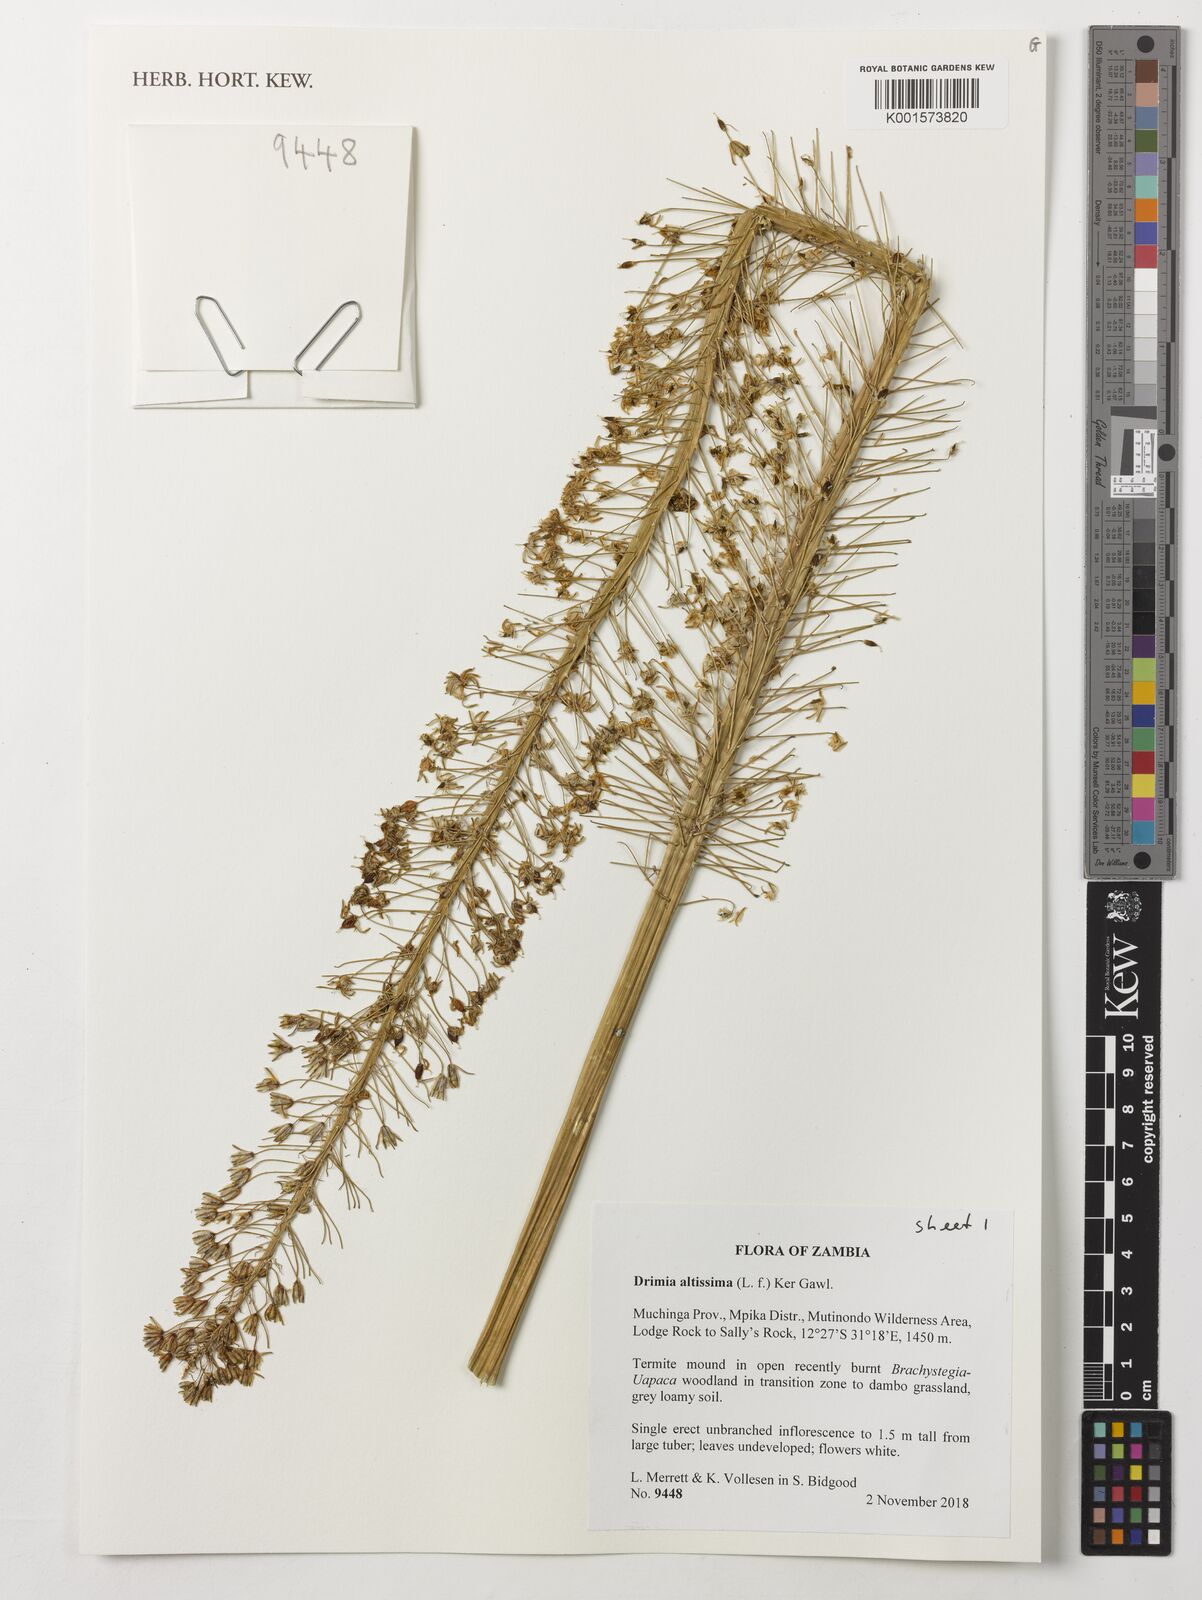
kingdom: Plantae
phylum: Tracheophyta
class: Liliopsida
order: Asparagales
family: Asparagaceae
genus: Drimia
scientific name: Drimia altissima
